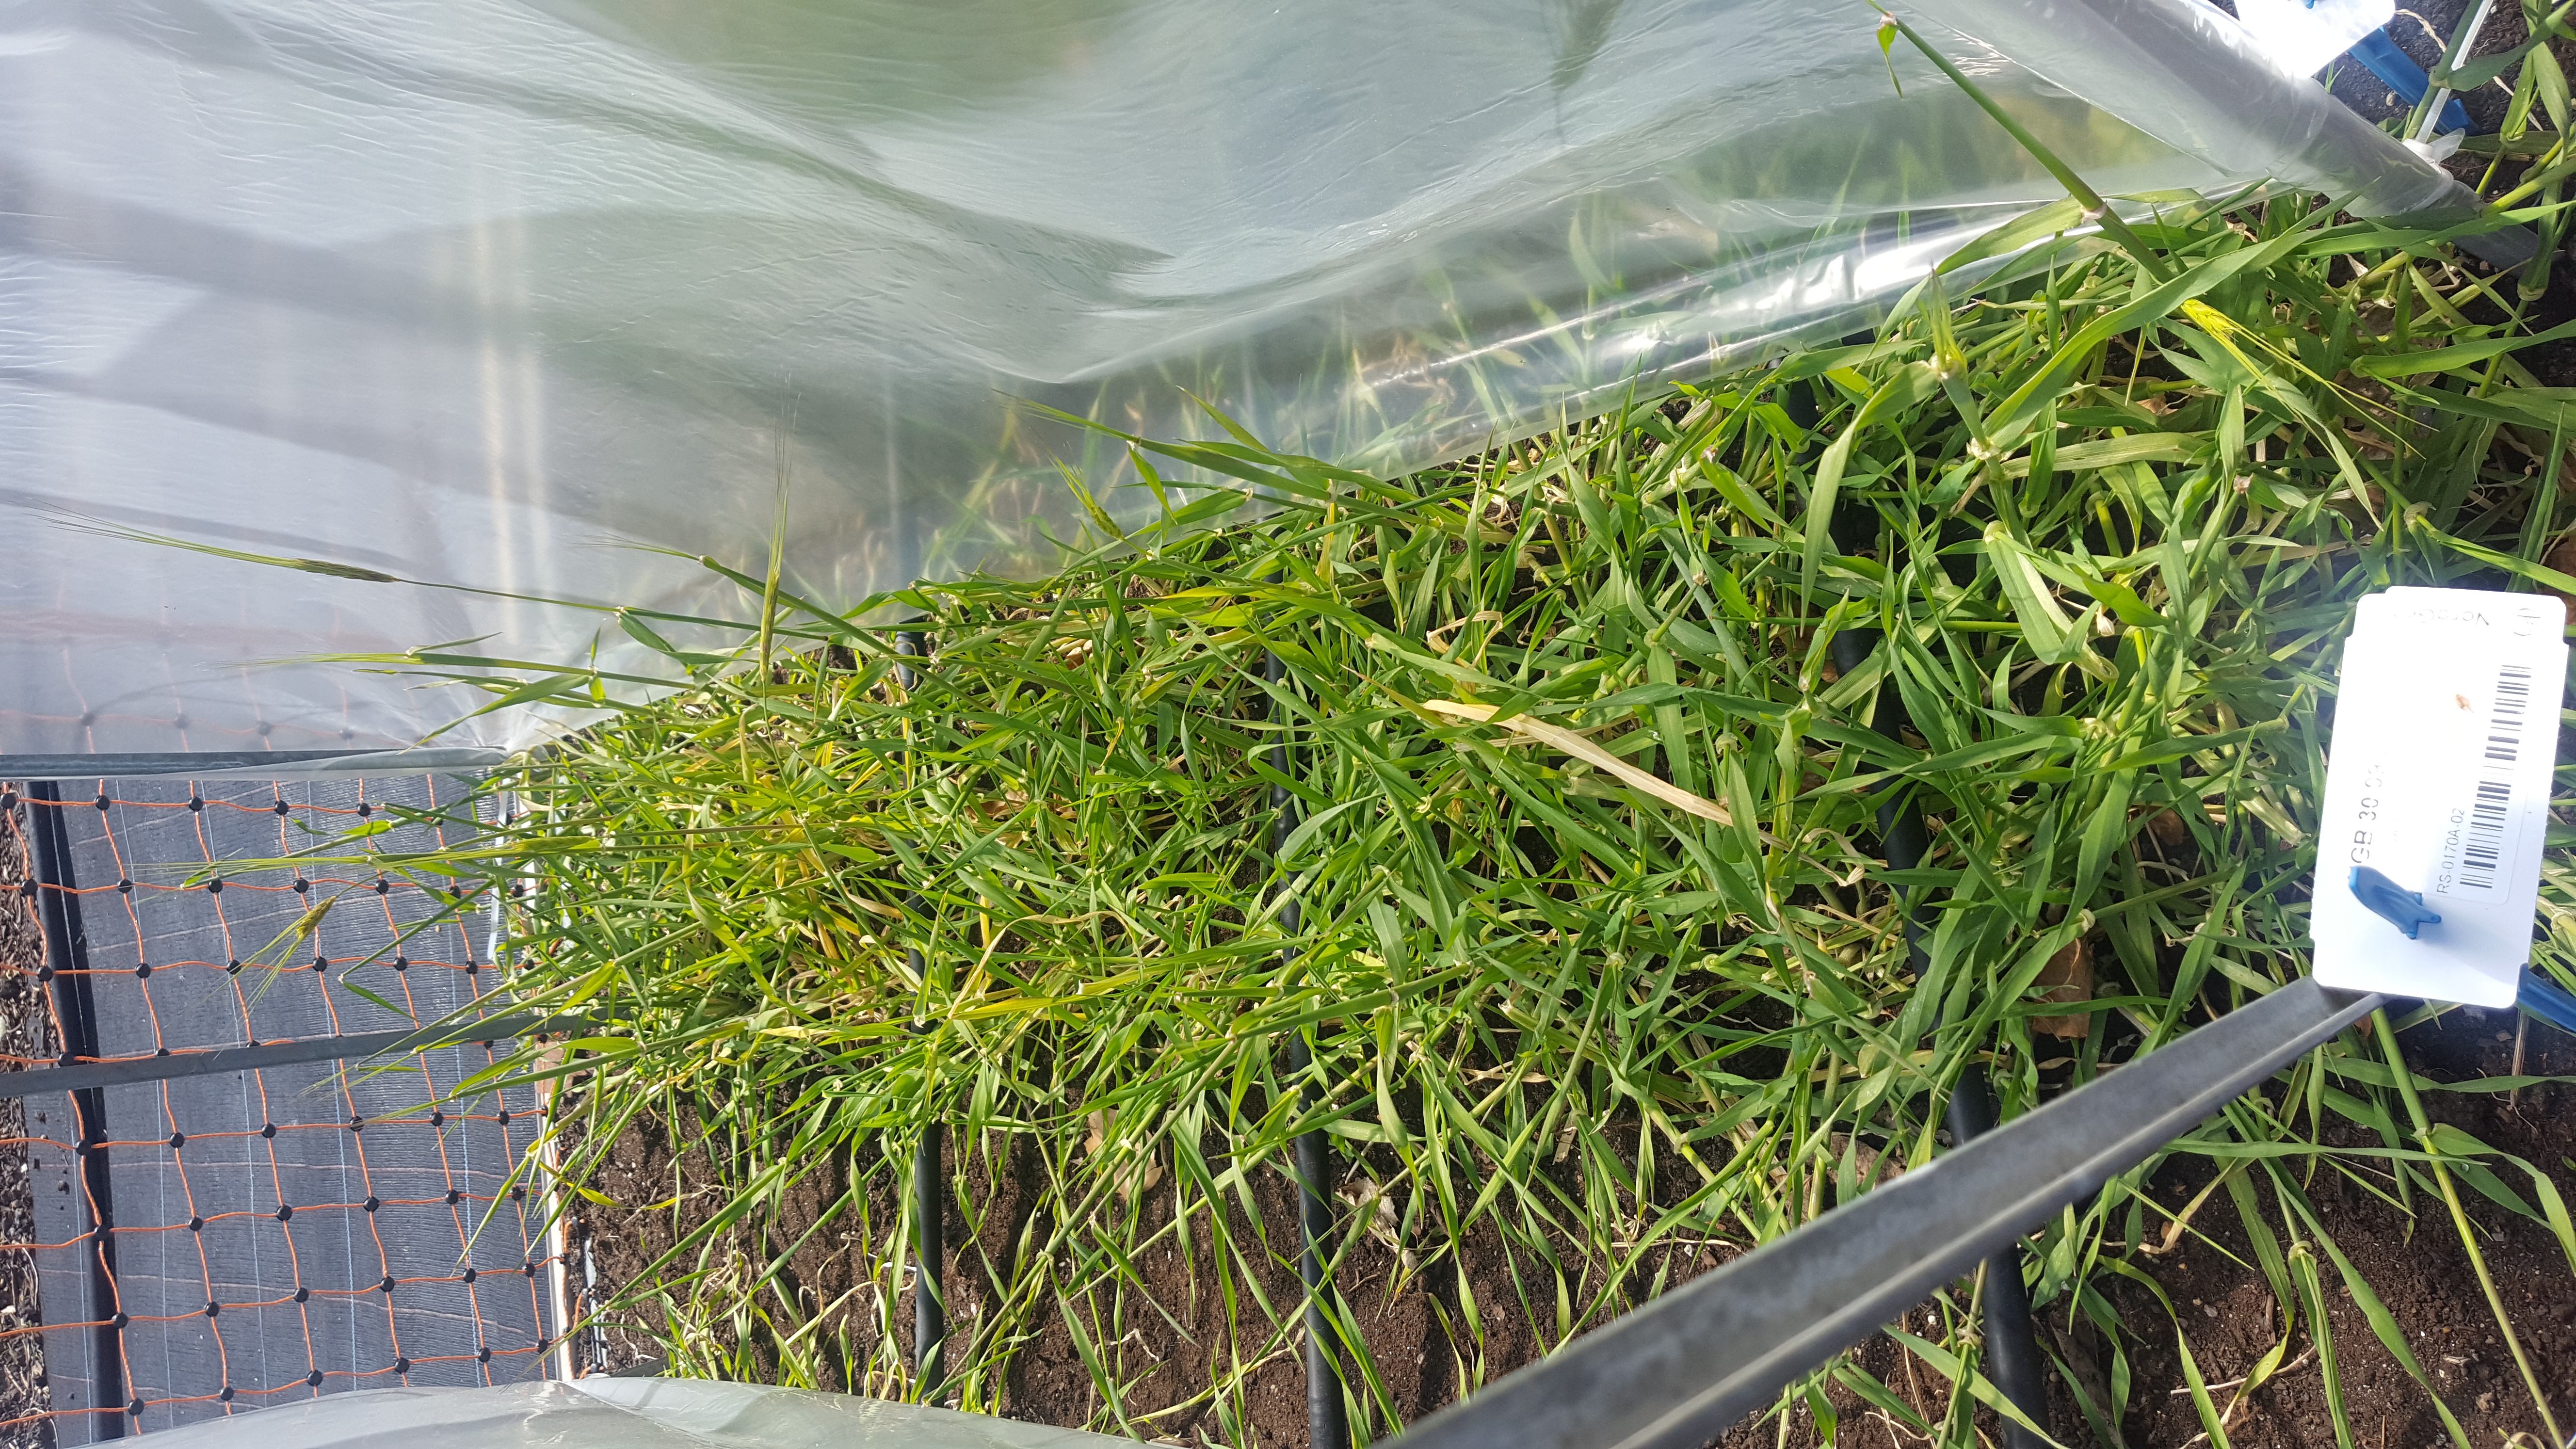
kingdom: Plantae
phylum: Tracheophyta
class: Liliopsida
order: Poales
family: Poaceae
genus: Hordeum
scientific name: Hordeum spontaneum
